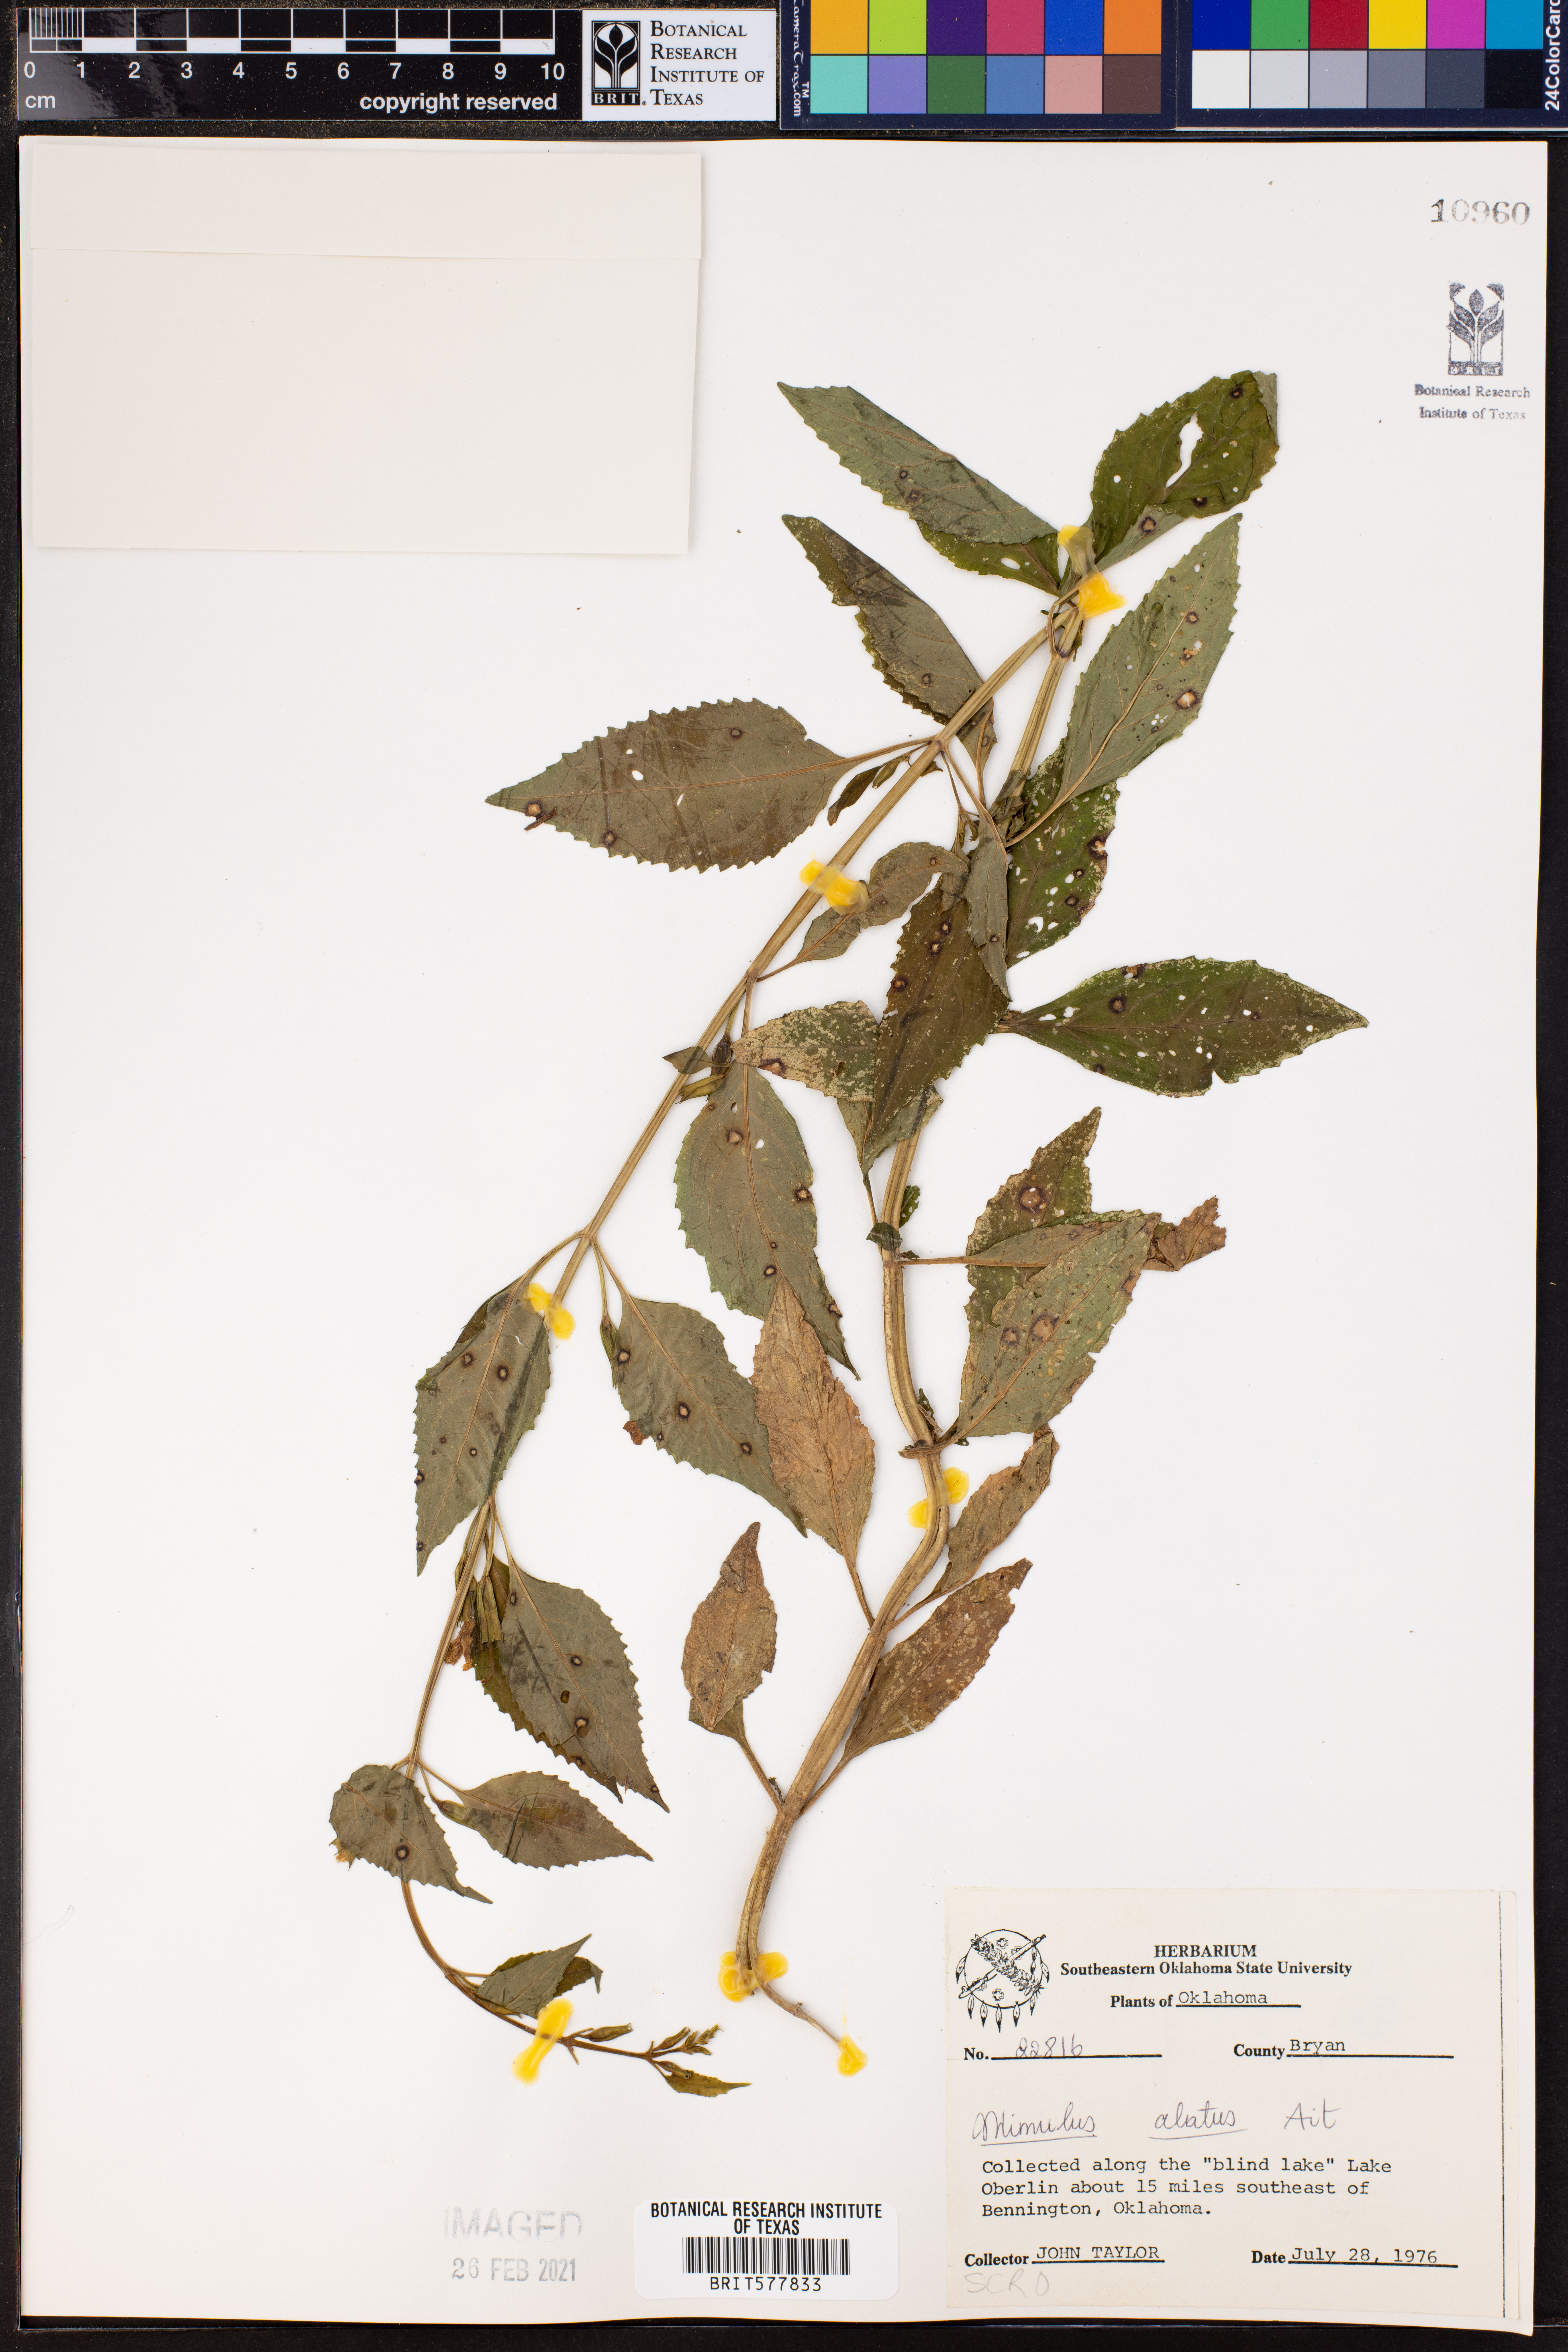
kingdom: Plantae
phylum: Tracheophyta
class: Magnoliopsida
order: Lamiales
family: Phrymaceae
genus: Mimulus
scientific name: Mimulus alatus
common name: Sharp-wing monkey-flower
